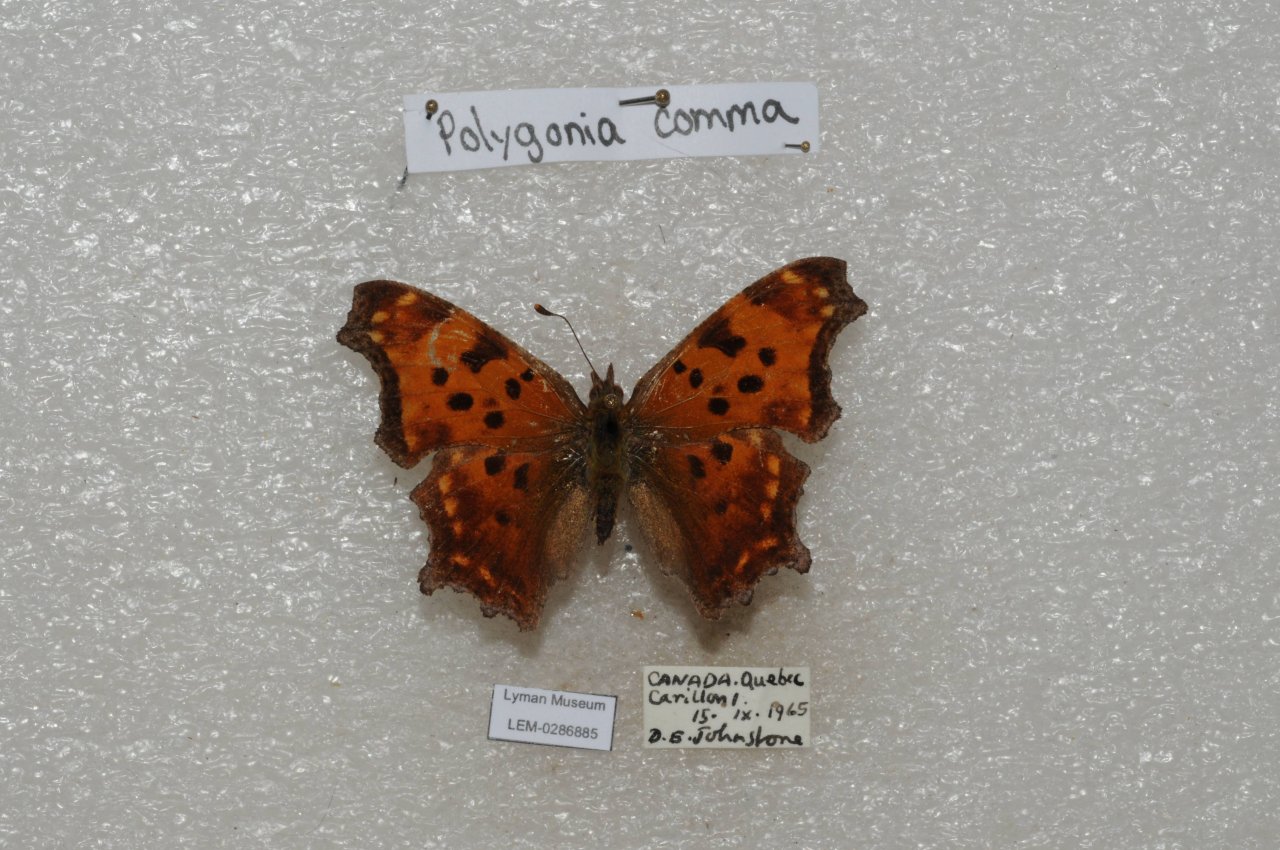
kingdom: Animalia
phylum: Arthropoda
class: Insecta
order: Lepidoptera
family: Nymphalidae
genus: Polygonia
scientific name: Polygonia comma
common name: Eastern Comma
